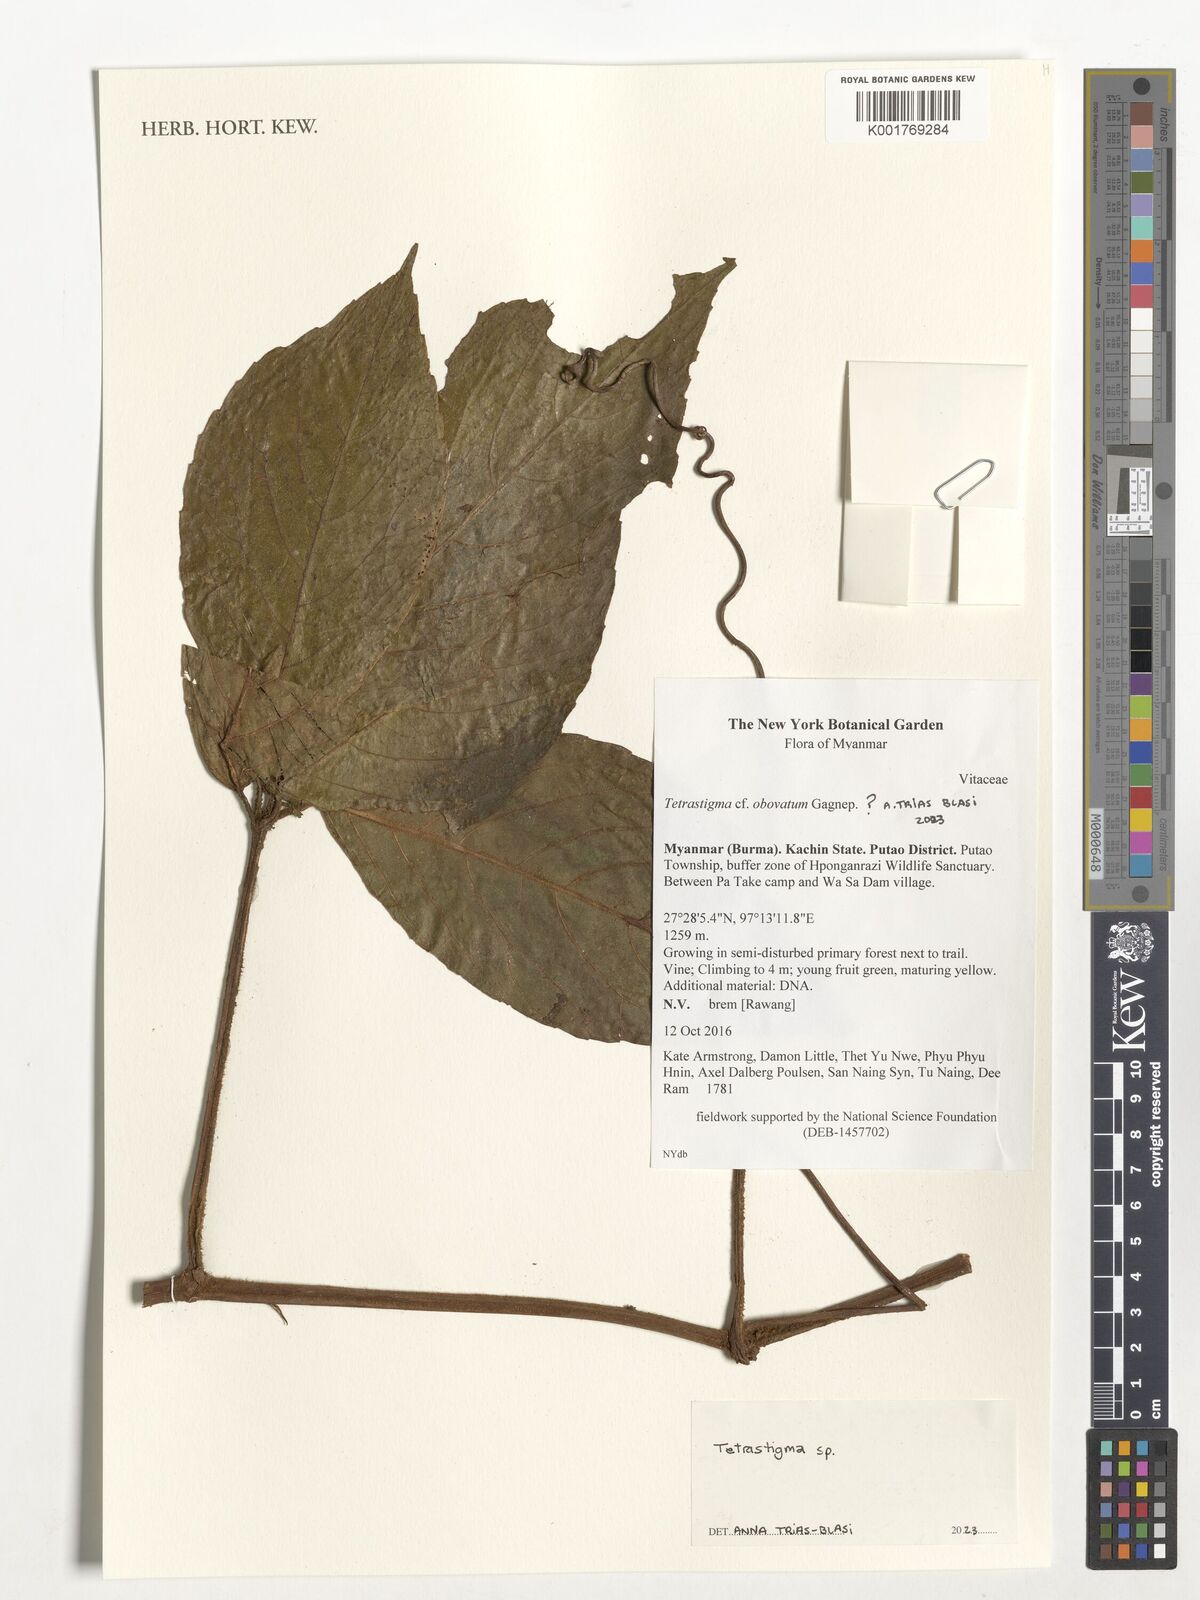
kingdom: Plantae
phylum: Tracheophyta
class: Magnoliopsida
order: Vitales
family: Vitaceae
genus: Tetrastigma
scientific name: Tetrastigma
